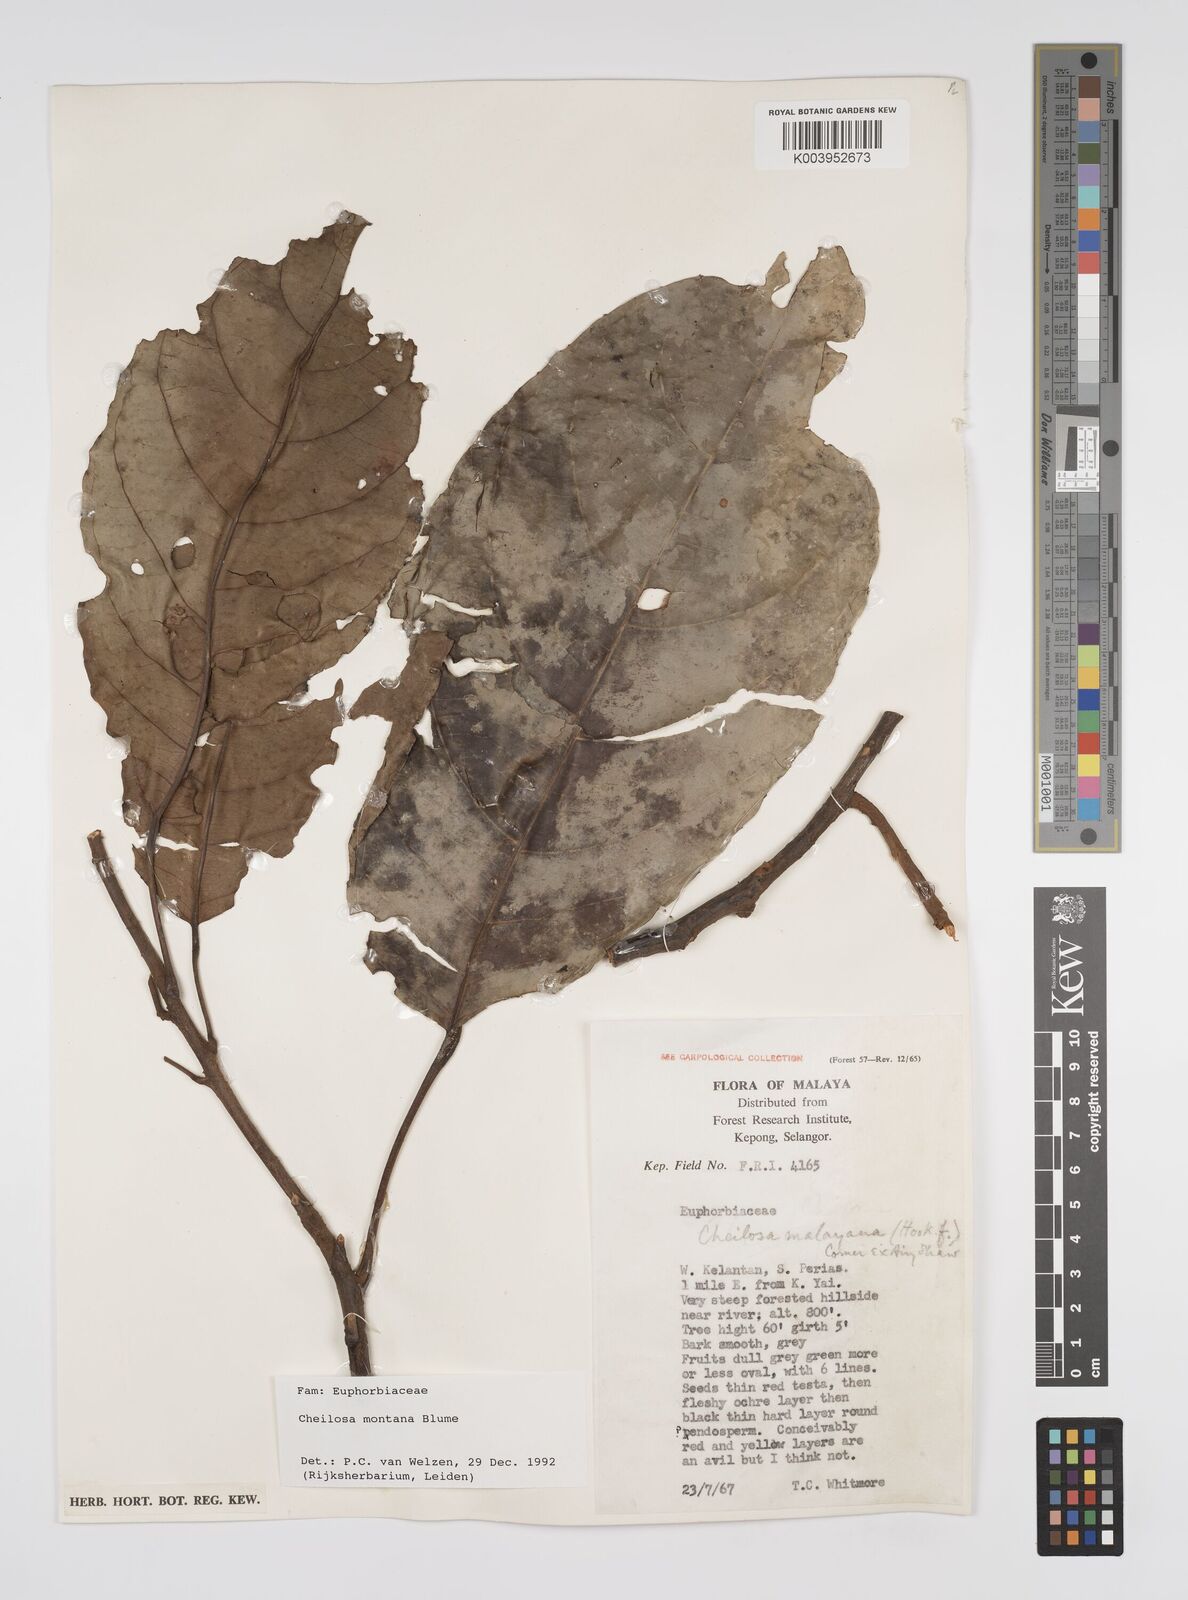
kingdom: Plantae
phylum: Tracheophyta
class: Magnoliopsida
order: Malpighiales
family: Euphorbiaceae
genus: Cheilosa
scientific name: Cheilosa montana
